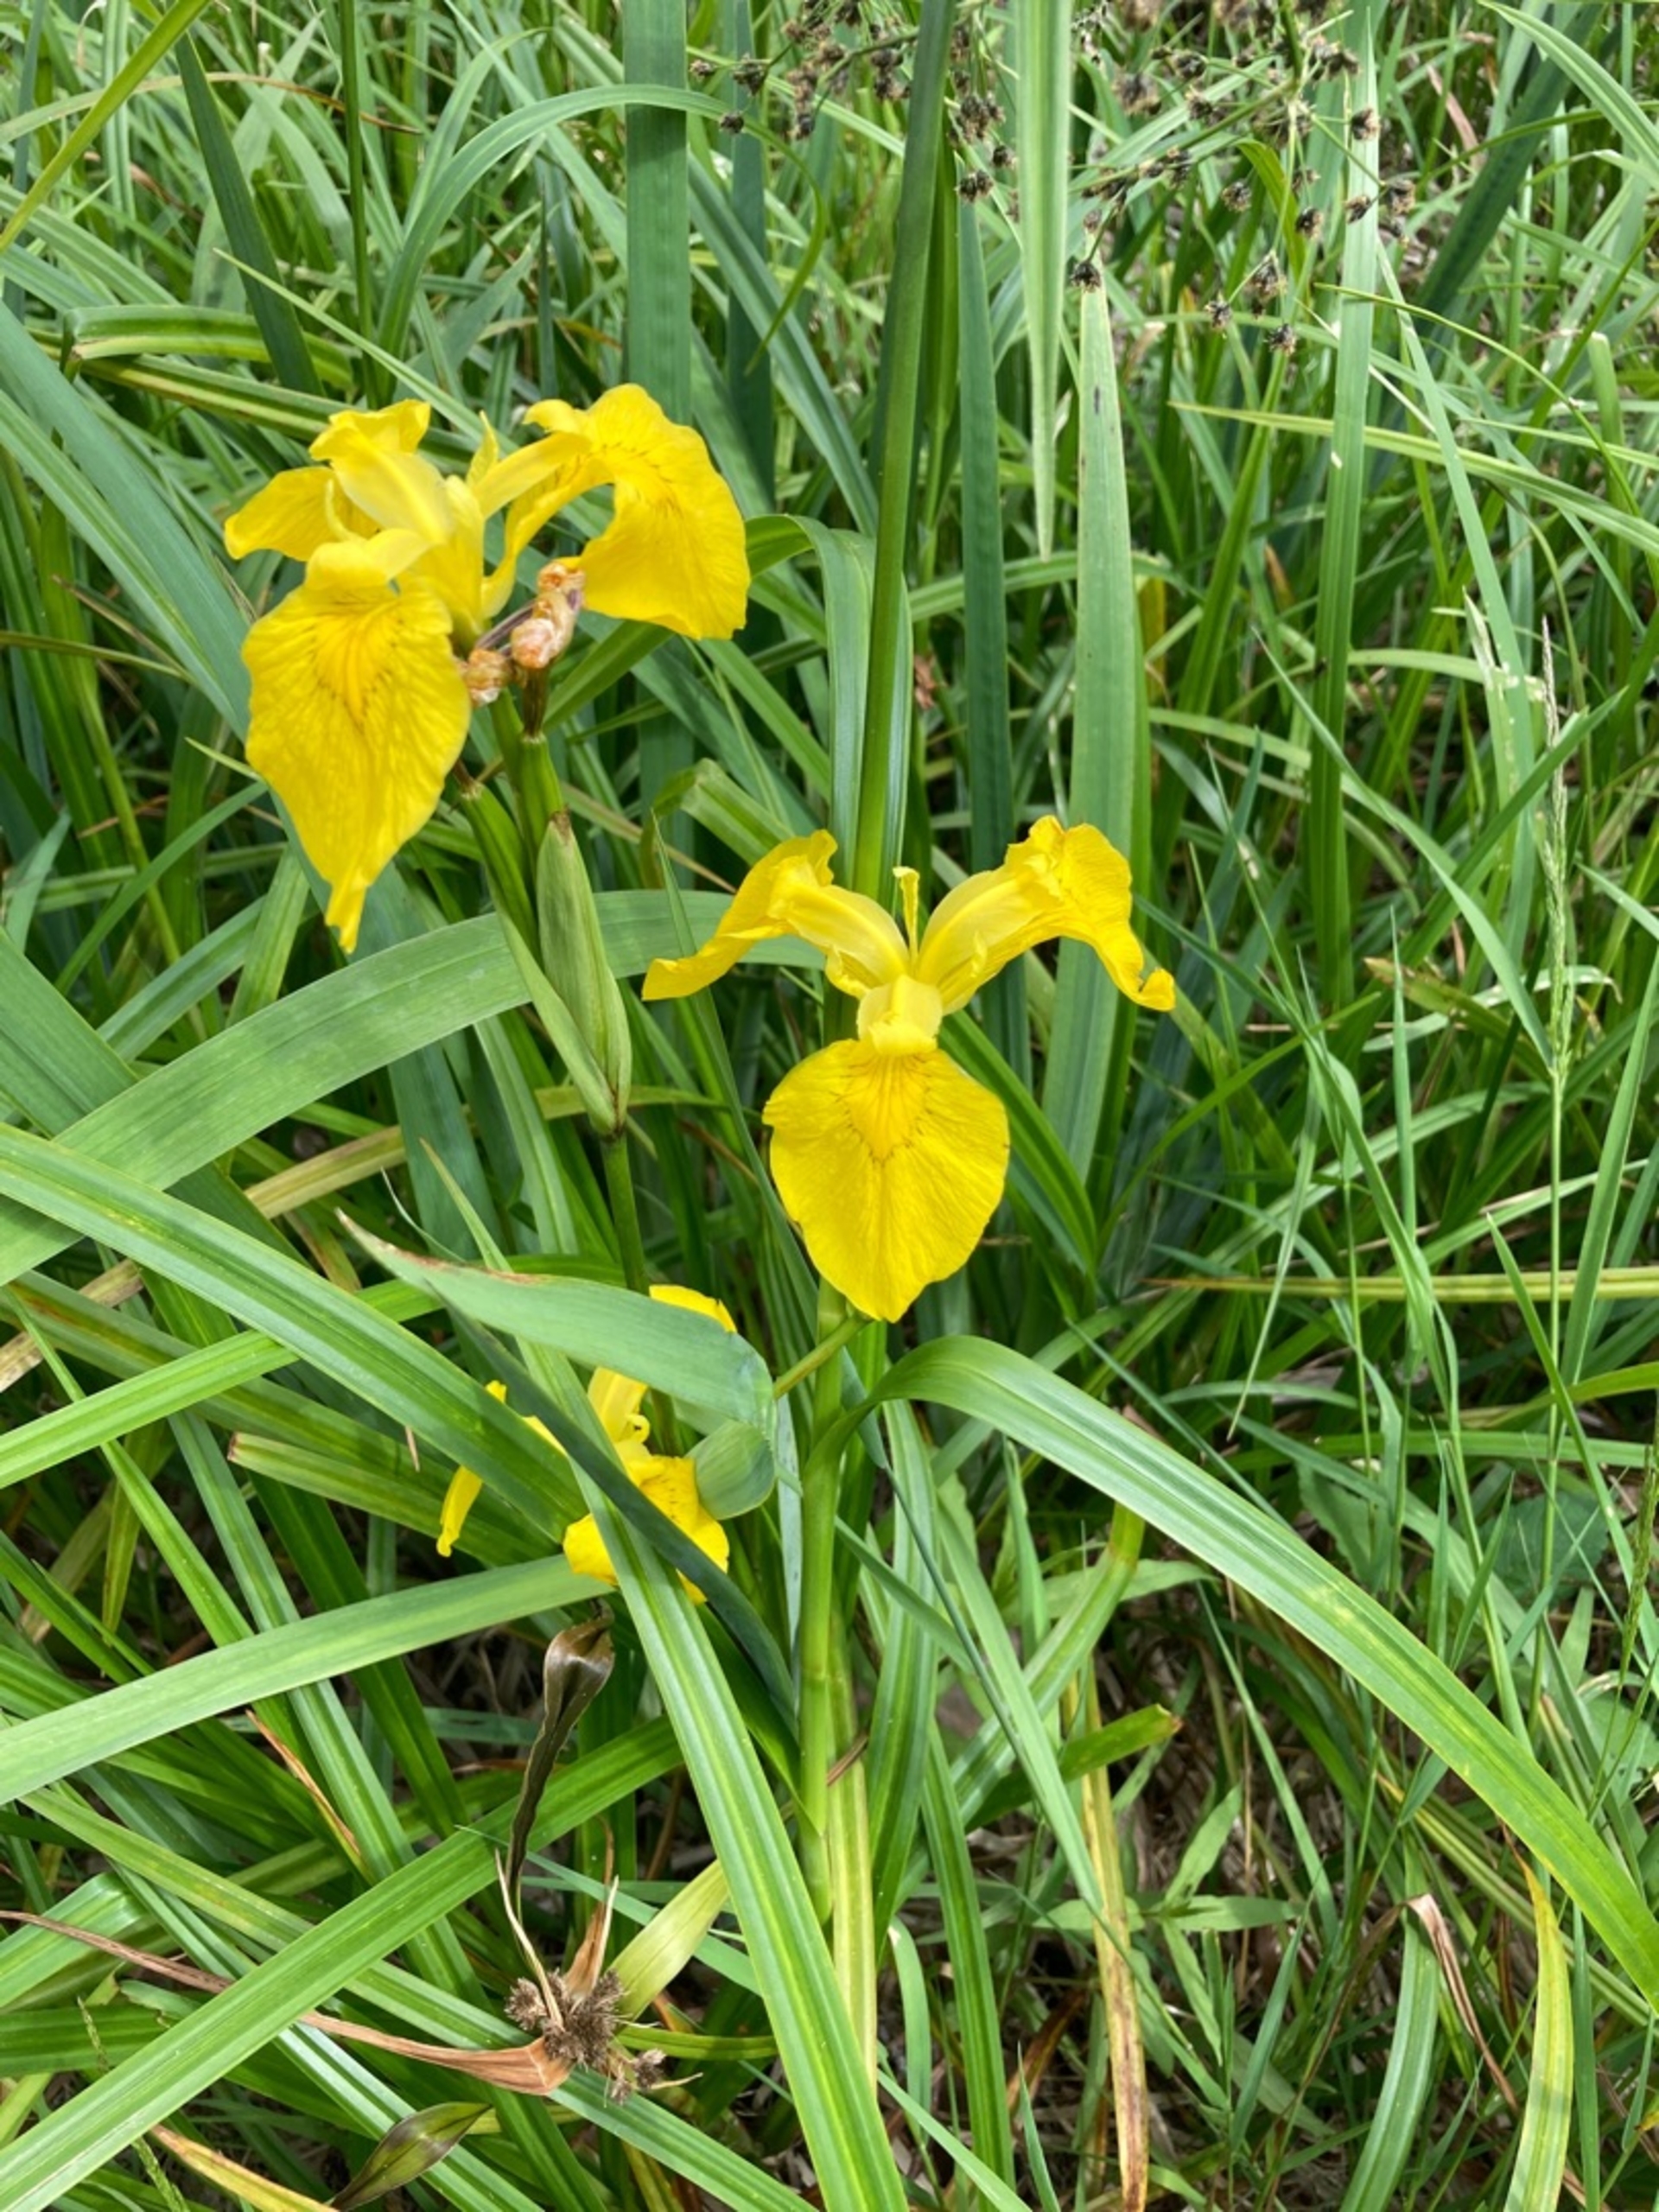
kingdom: Plantae
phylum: Tracheophyta
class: Liliopsida
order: Asparagales
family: Iridaceae
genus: Iris
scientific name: Iris pseudacorus
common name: Gul iris
